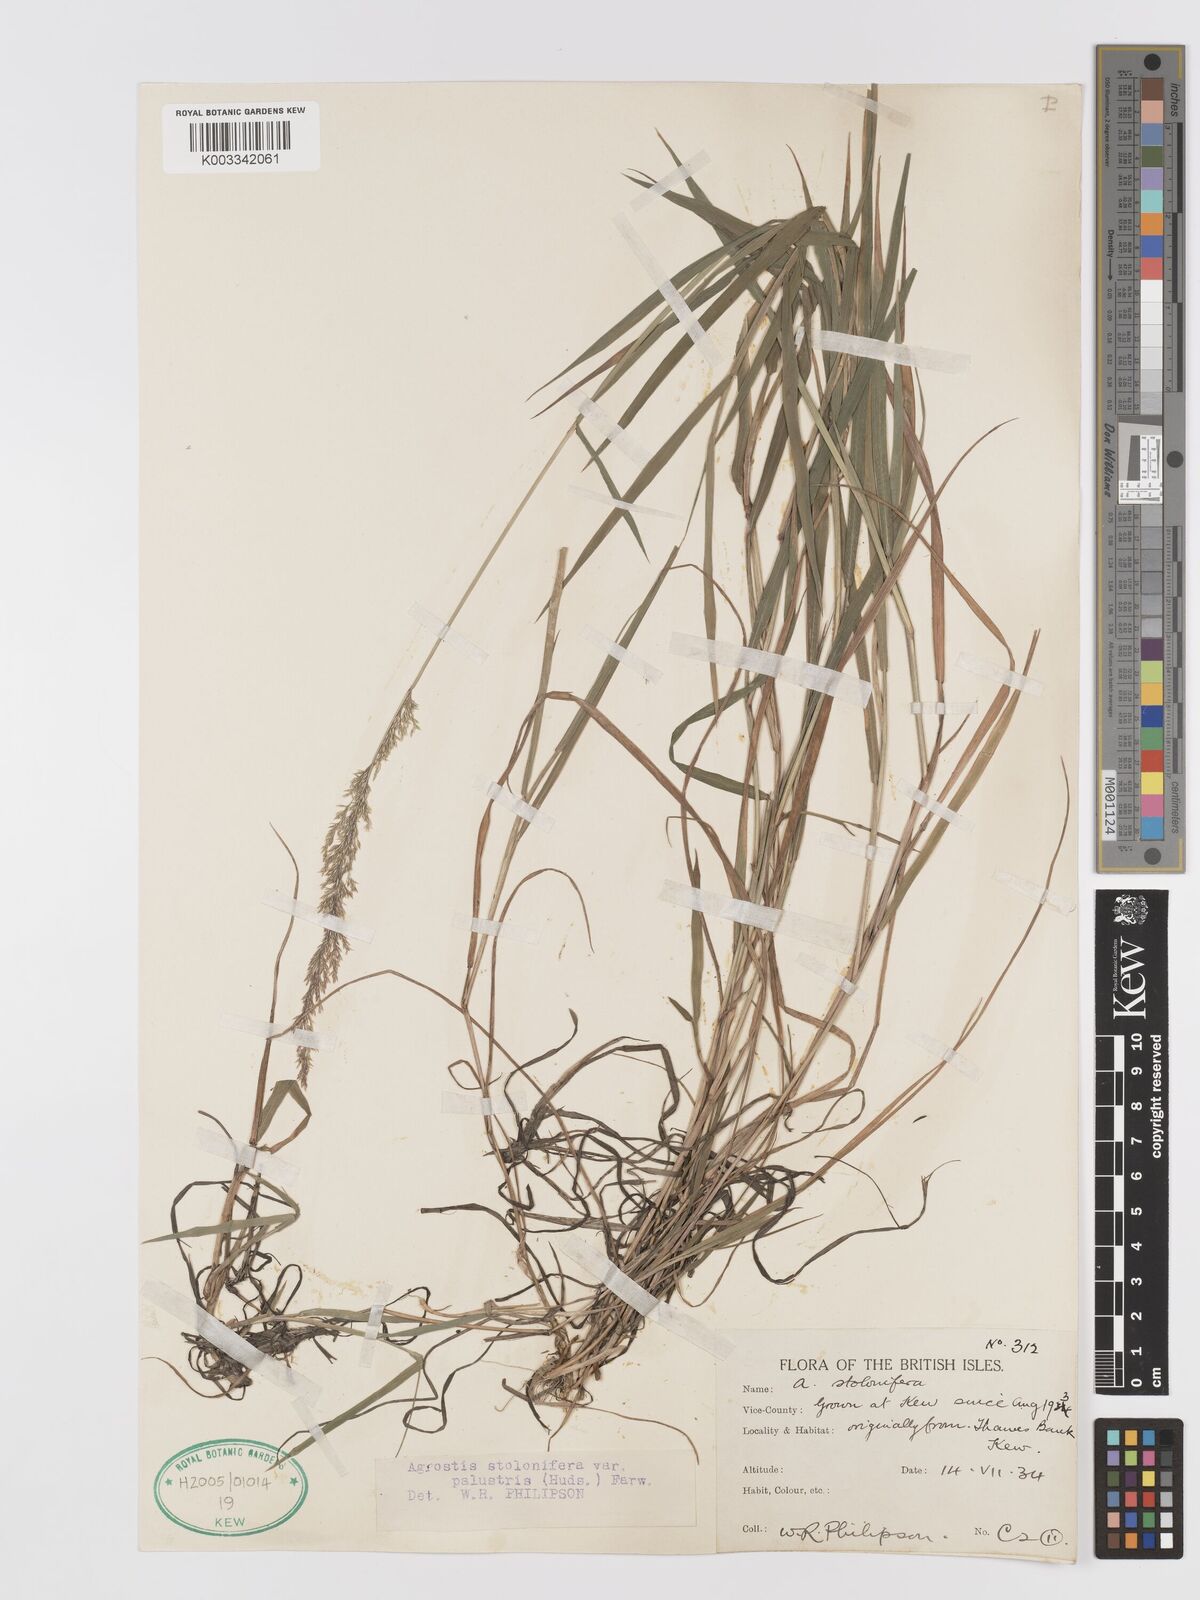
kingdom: Plantae
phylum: Tracheophyta
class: Liliopsida
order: Poales
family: Poaceae
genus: Agrostis
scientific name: Agrostis stolonifera
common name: Creeping bentgrass
